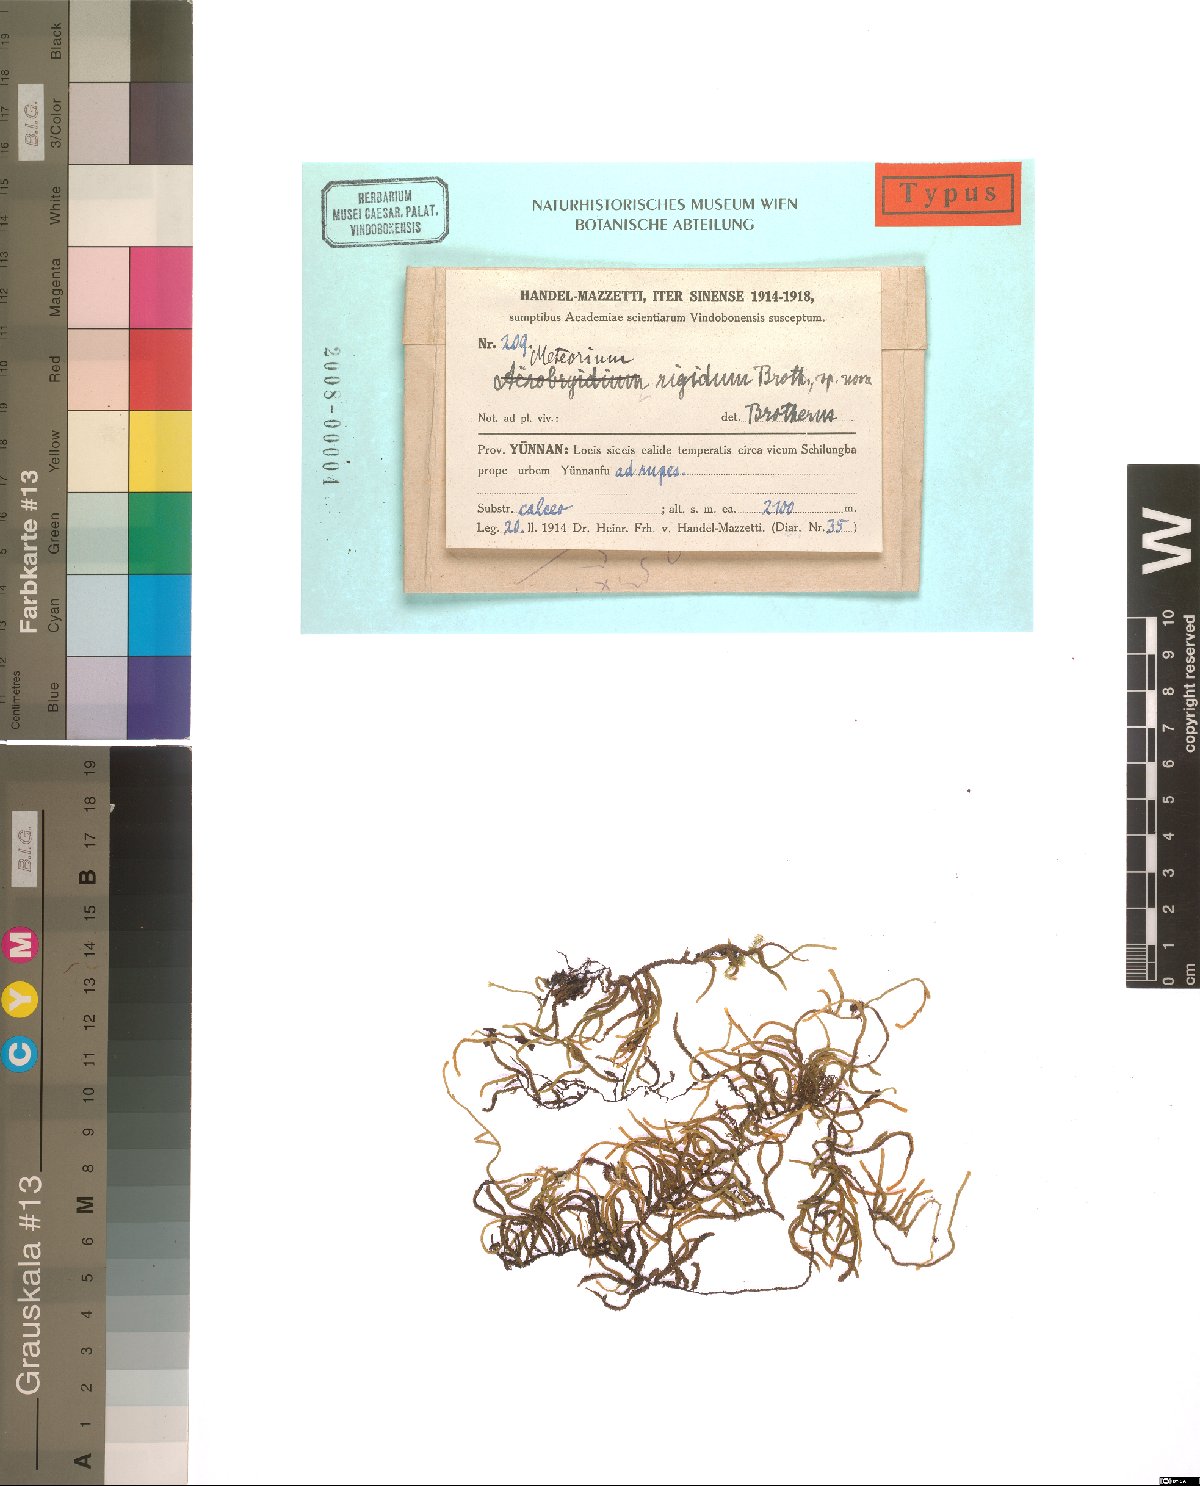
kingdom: Plantae
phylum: Bryophyta
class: Bryopsida
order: Hypnales
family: Meteoriaceae
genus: Meteorium
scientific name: Meteorium buchananii
